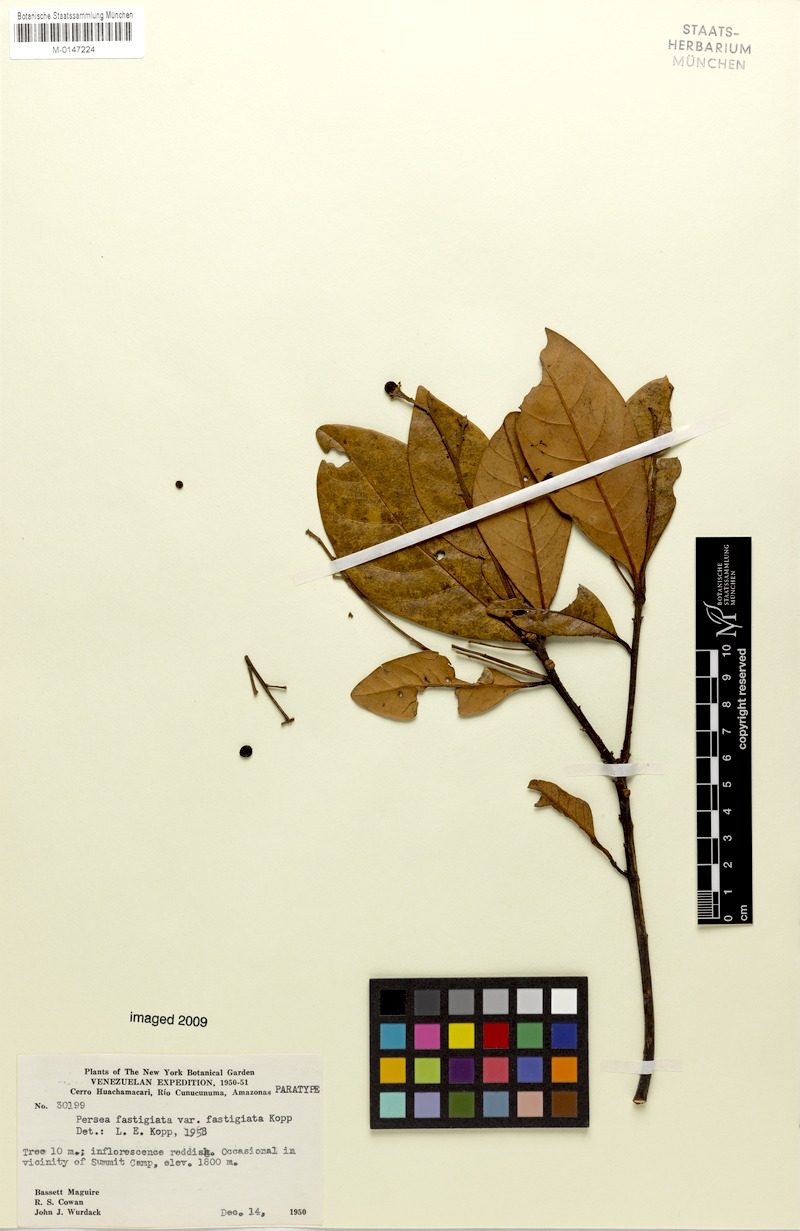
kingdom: Plantae
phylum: Tracheophyta
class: Magnoliopsida
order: Laurales
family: Lauraceae
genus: Persea
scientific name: Persea fastigiata
